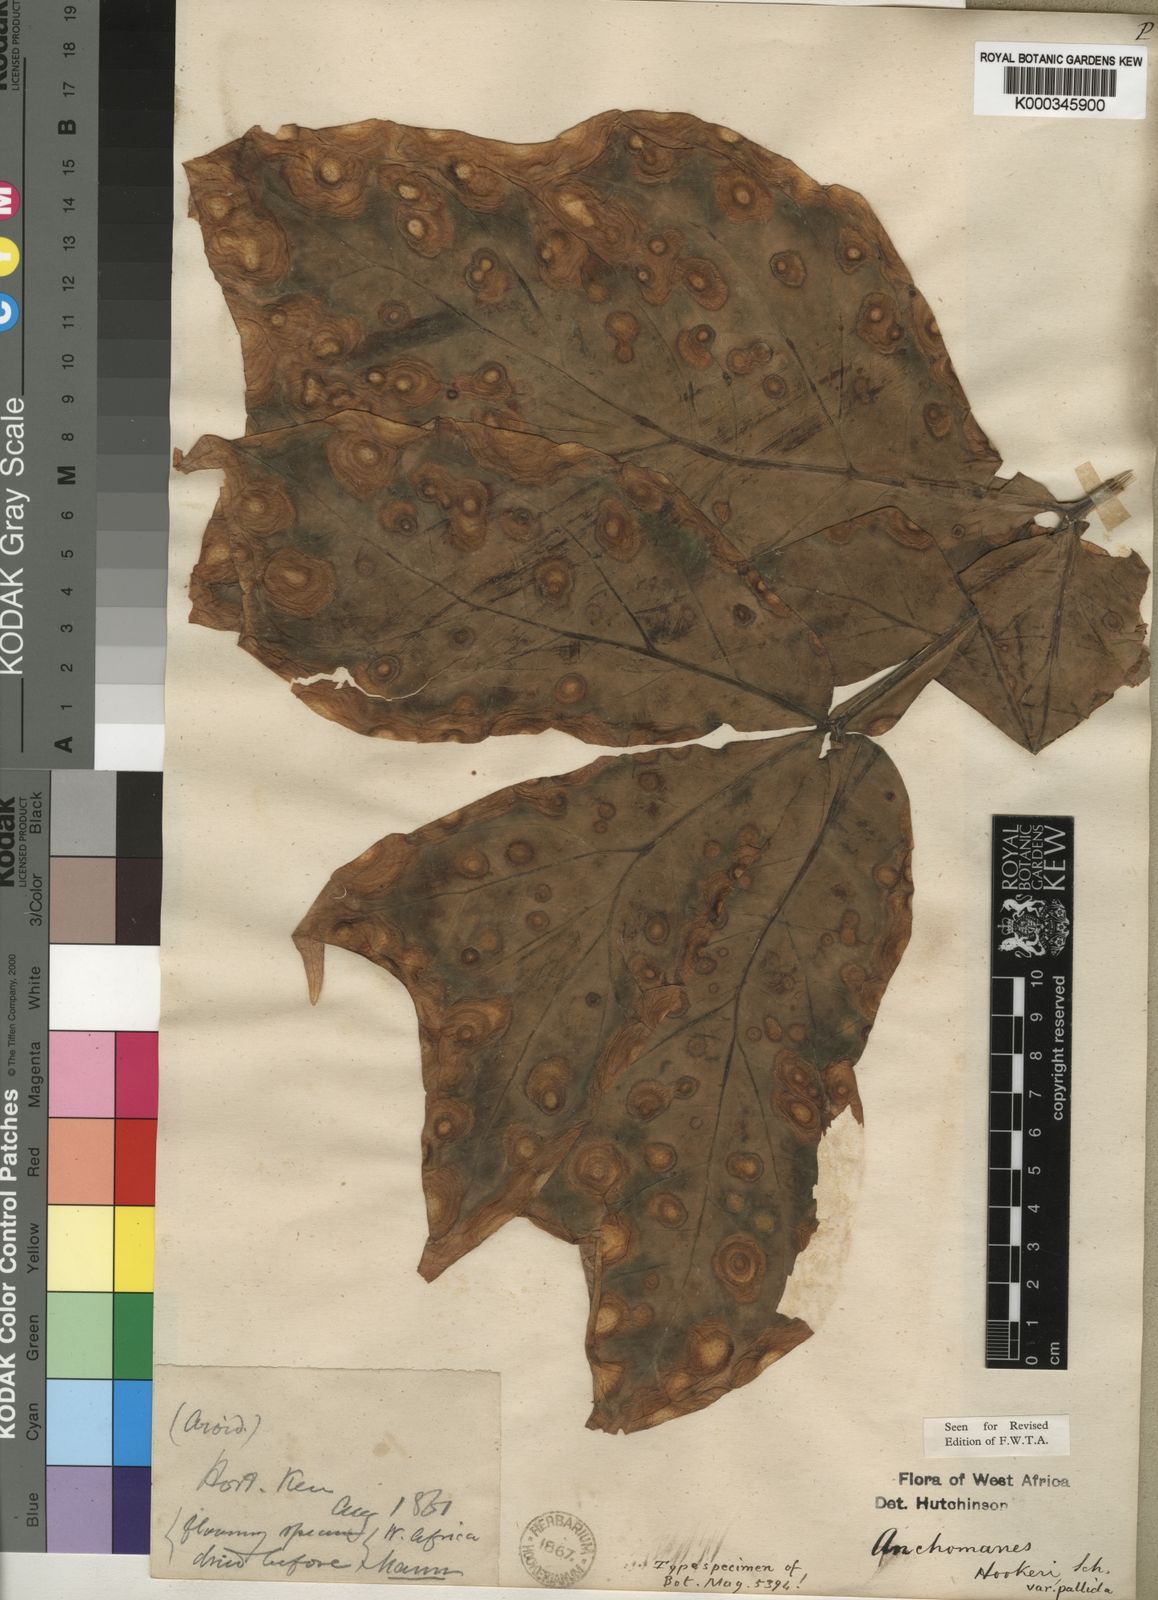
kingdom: Plantae
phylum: Tracheophyta
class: Liliopsida
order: Alismatales
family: Araceae
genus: Anchomanes
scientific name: Anchomanes difformis
